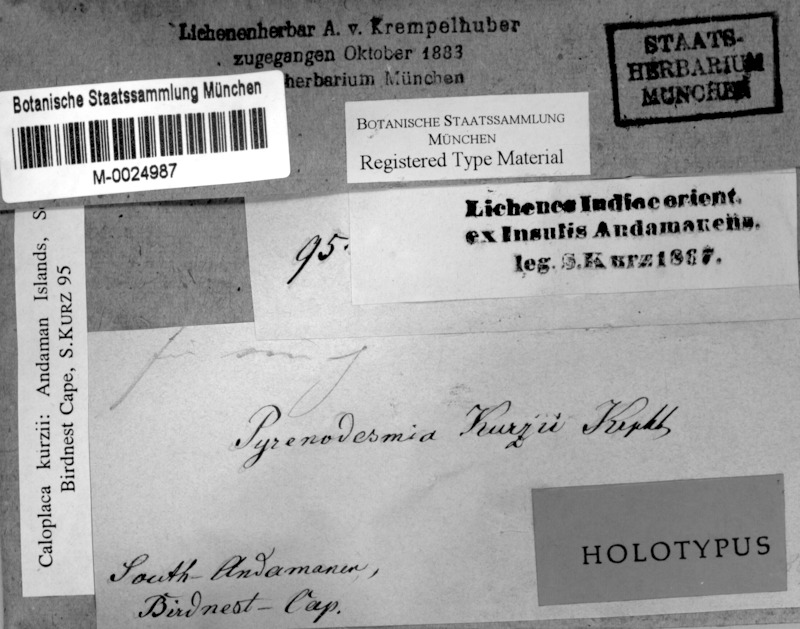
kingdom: Fungi
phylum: Ascomycota
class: Lecanoromycetes
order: Teloschistales
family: Teloschistaceae
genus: Caloplaca
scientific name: Caloplaca kurzii
